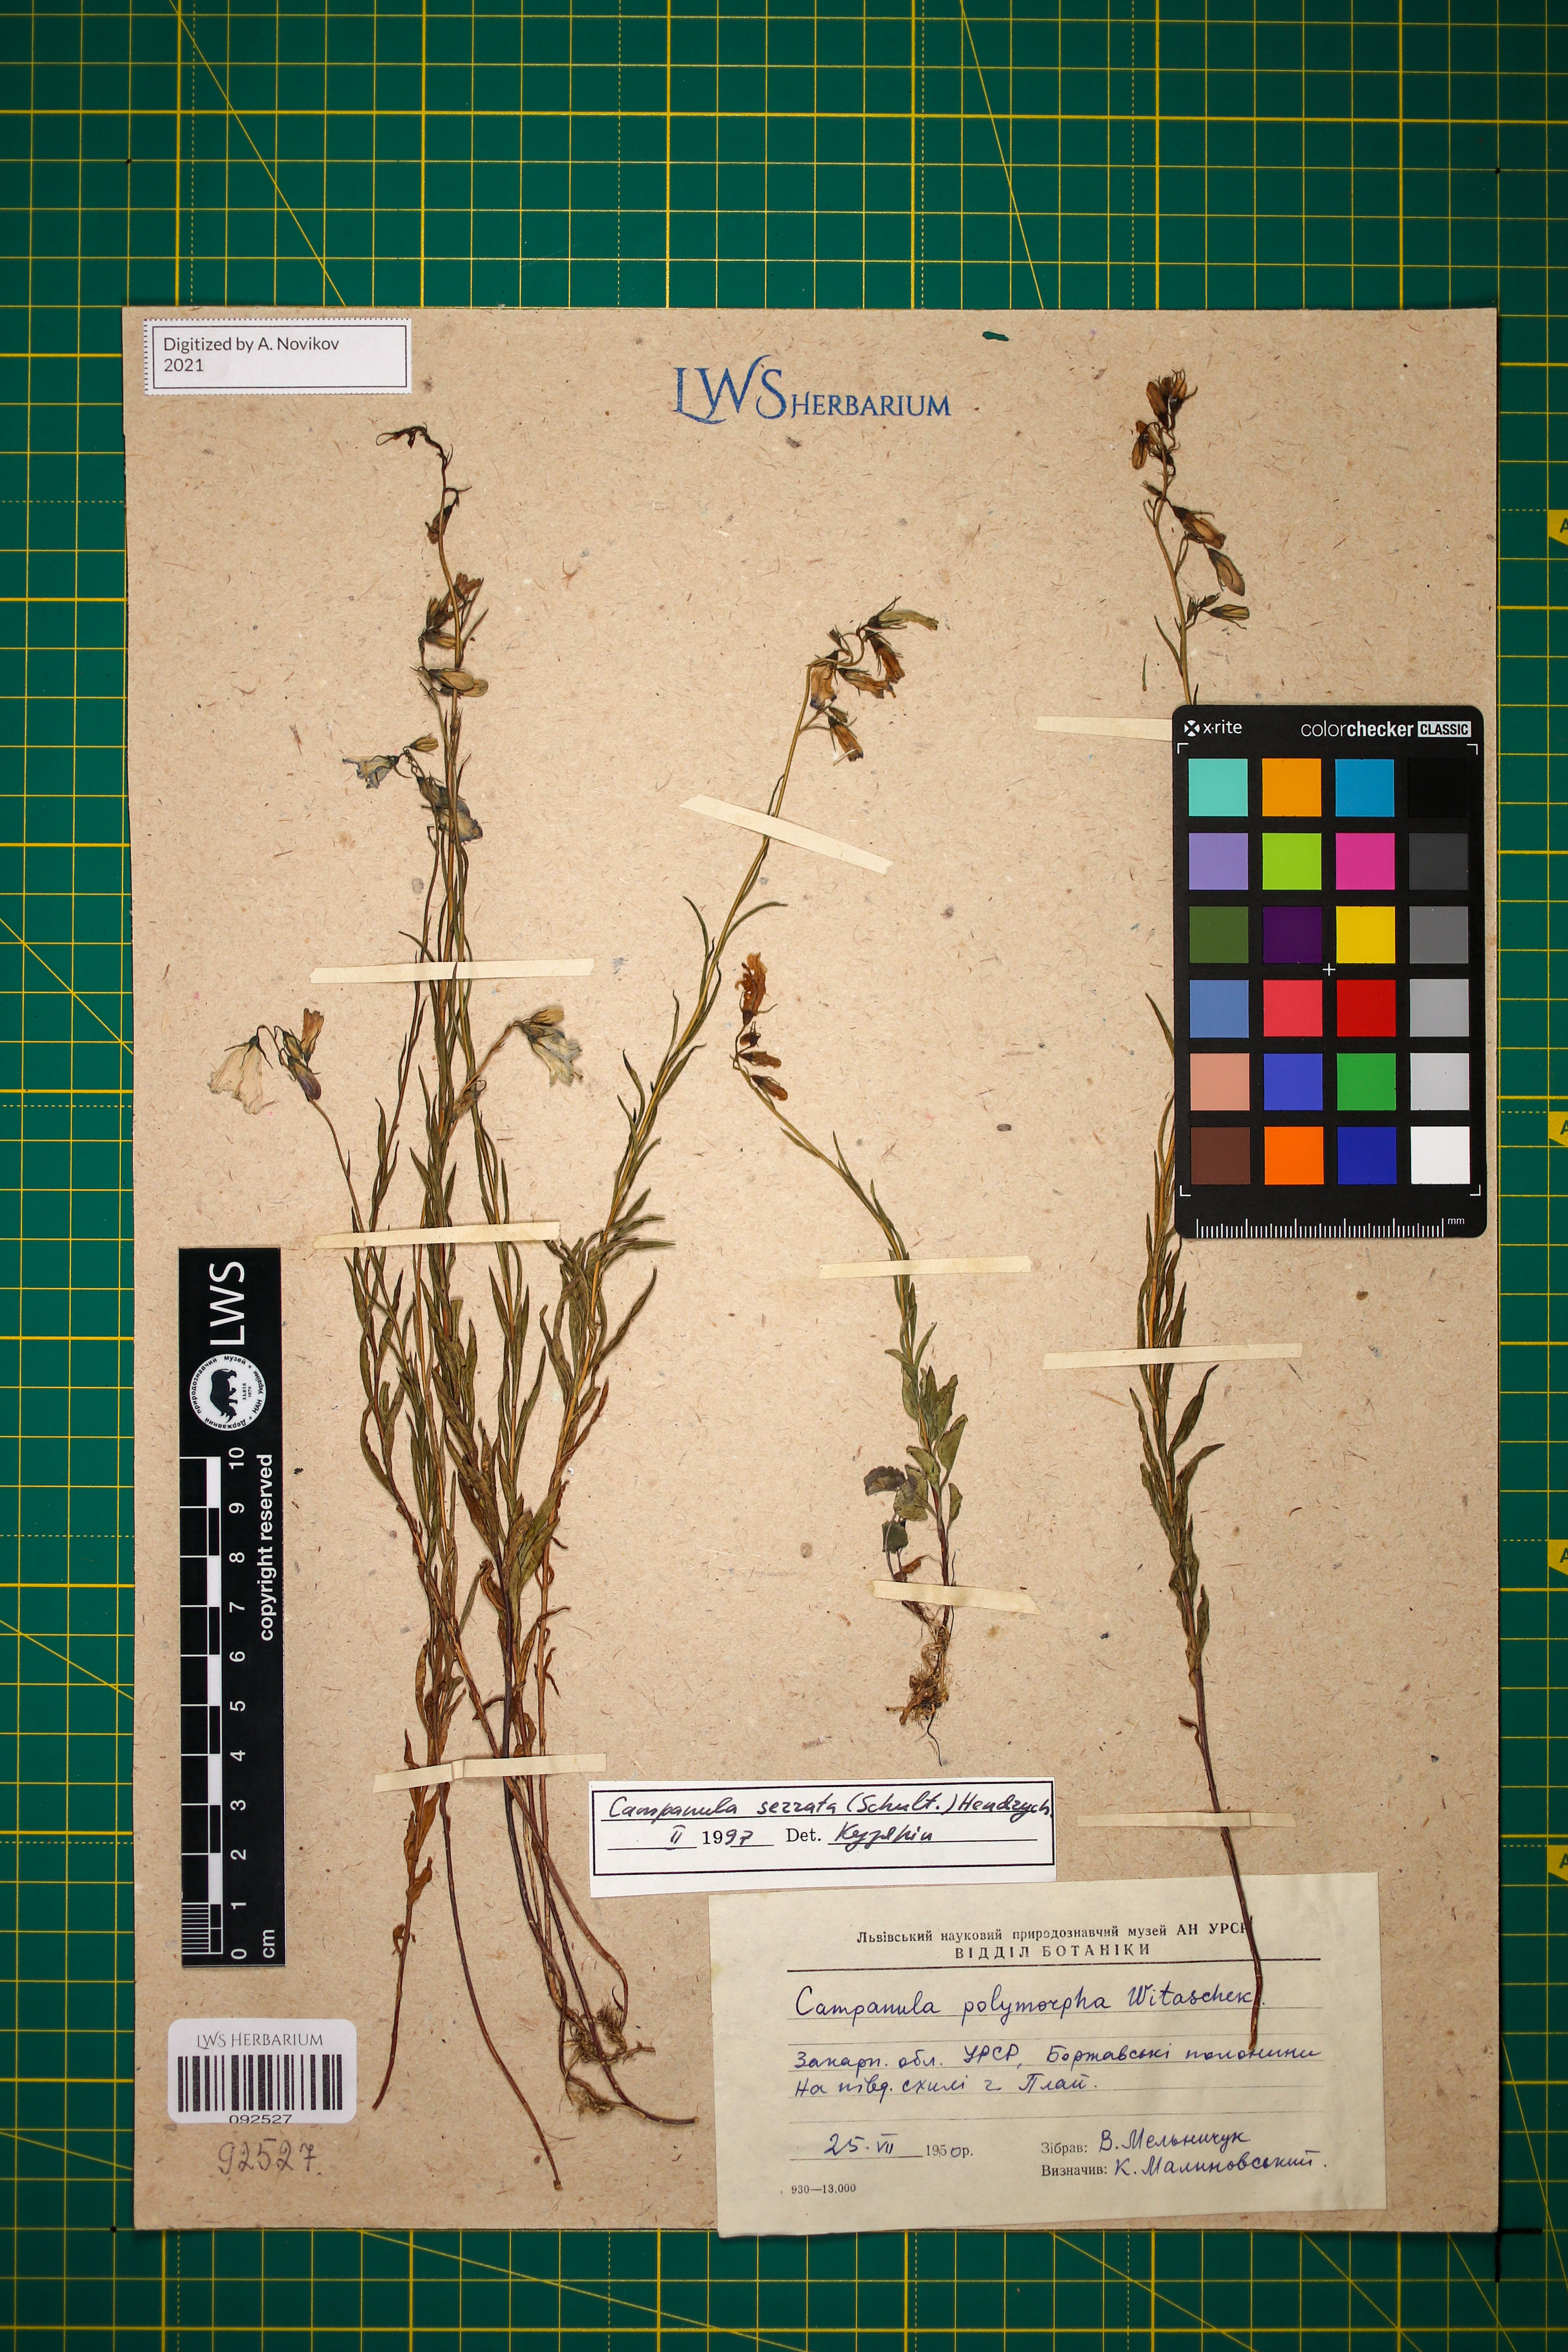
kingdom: Plantae
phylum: Tracheophyta
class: Magnoliopsida
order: Asterales
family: Campanulaceae
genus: Campanula
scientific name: Campanula serrata
